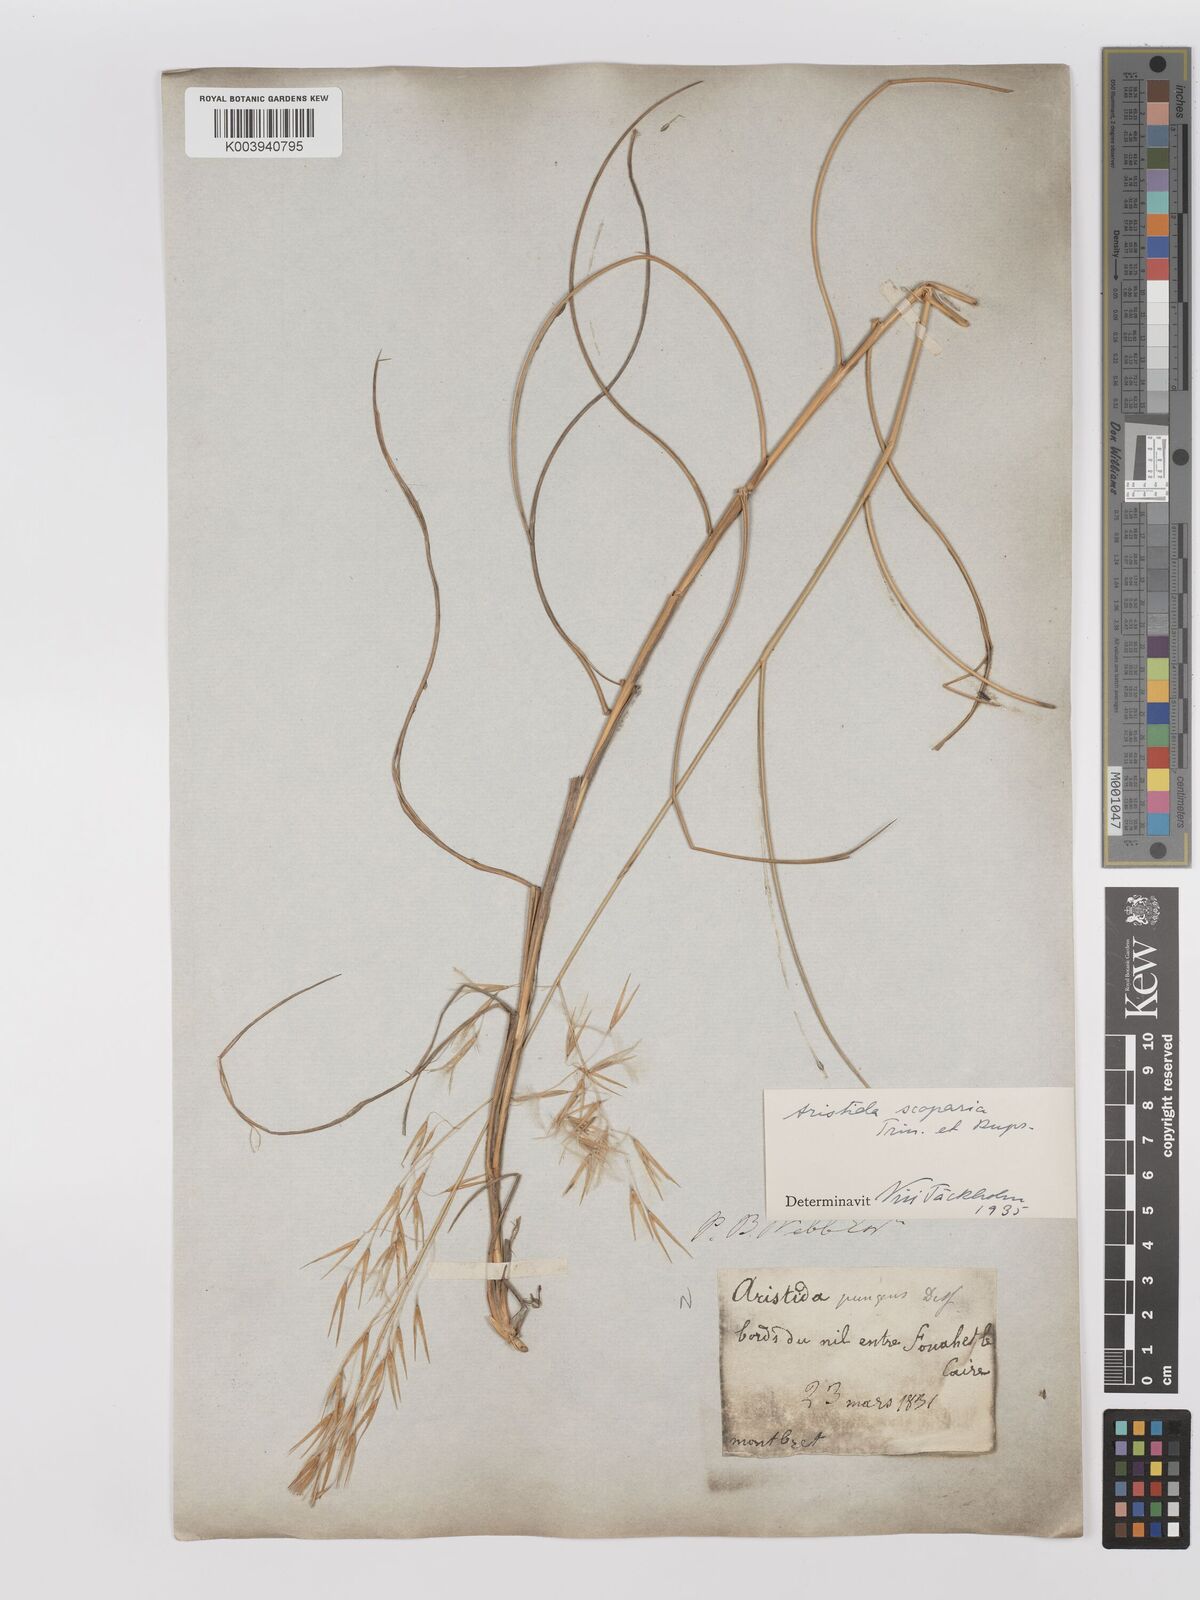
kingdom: Plantae
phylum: Tracheophyta
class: Liliopsida
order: Poales
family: Poaceae
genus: Stipagrostis
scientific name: Stipagrostis scoparia
